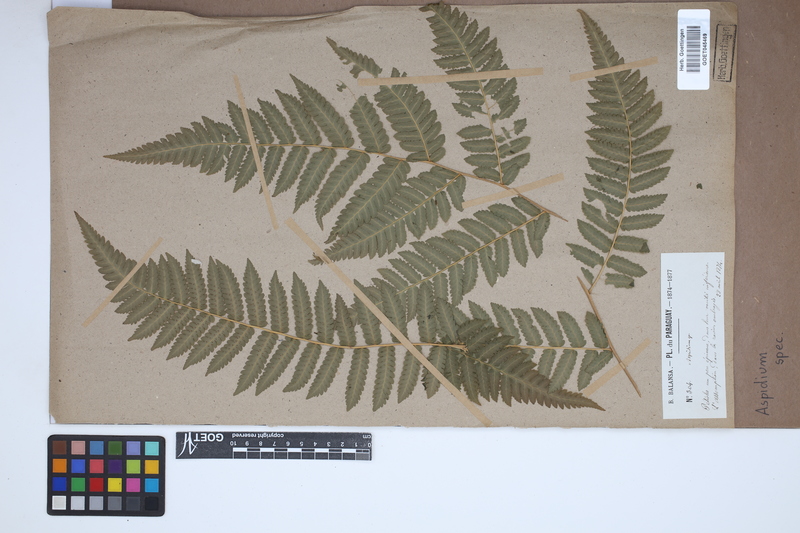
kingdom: Plantae
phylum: Tracheophyta
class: Polypodiopsida
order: Polypodiales
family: Tectariaceae
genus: Tectaria
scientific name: Tectaria Aspidium spec
